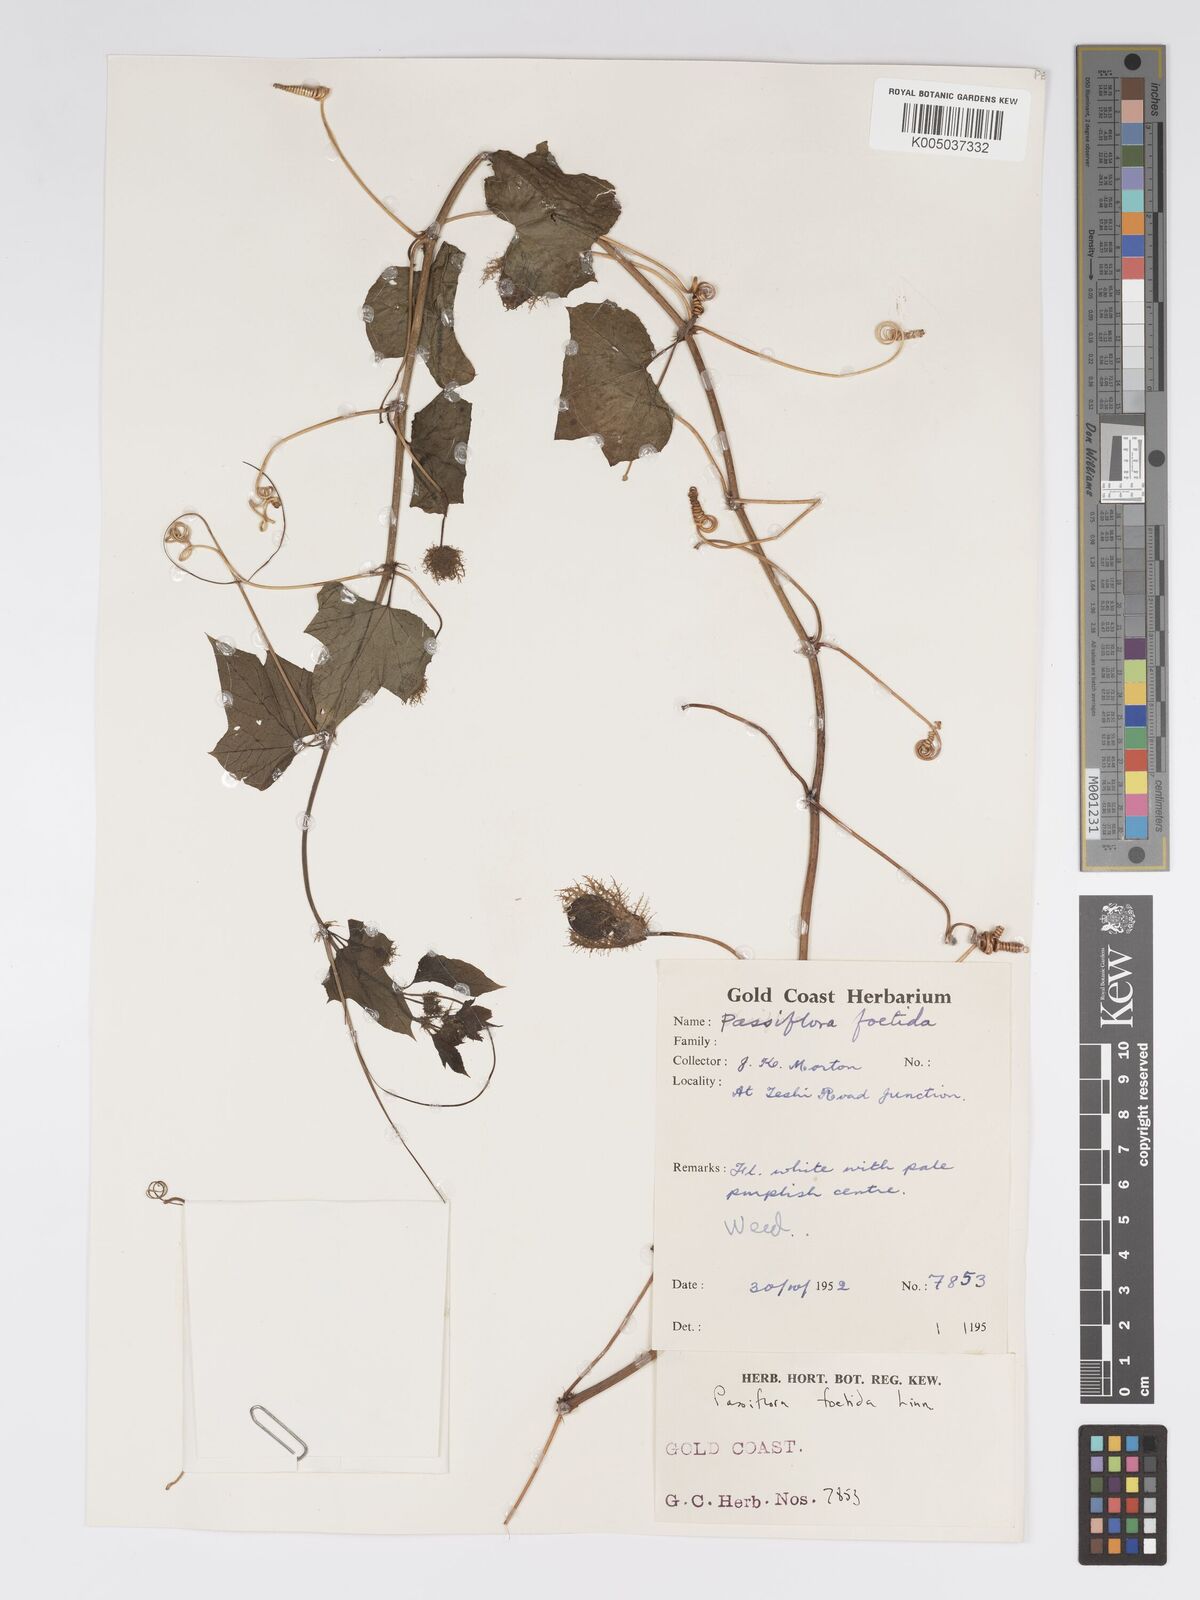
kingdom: Plantae
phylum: Tracheophyta
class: Magnoliopsida
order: Malpighiales
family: Passifloraceae
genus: Passiflora
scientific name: Passiflora foetida
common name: Fetid passionflower
